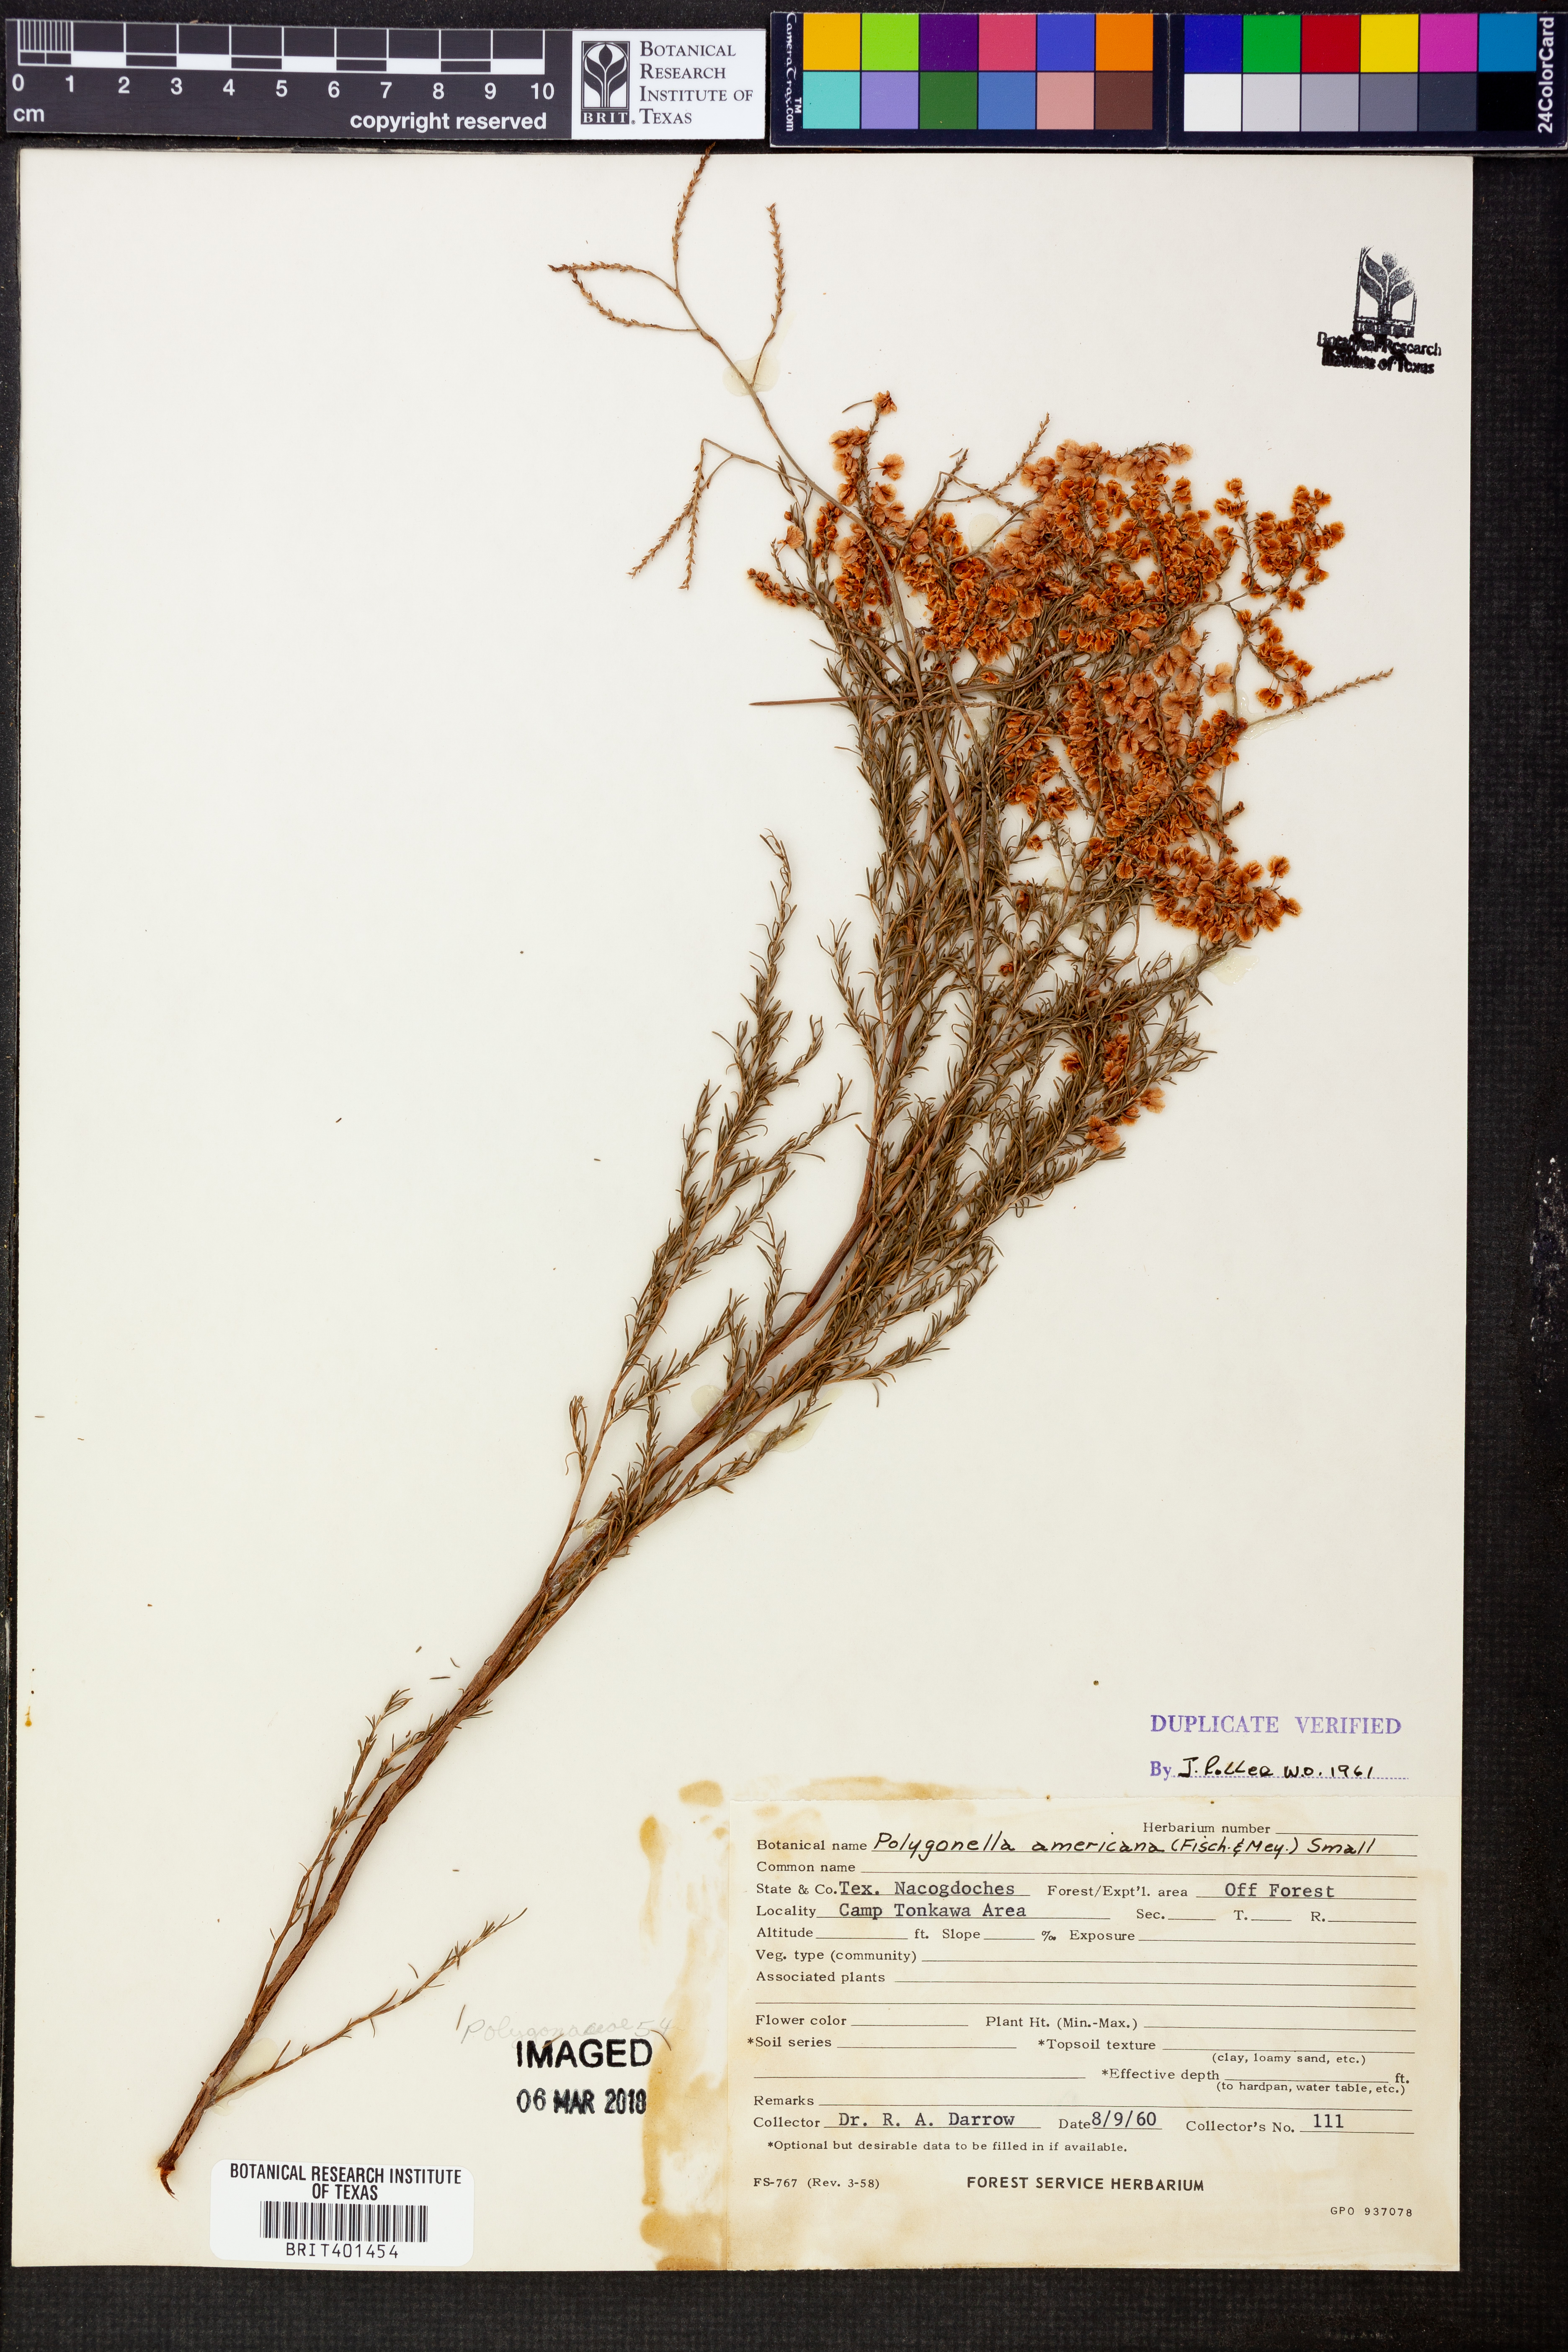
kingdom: Plantae
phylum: Tracheophyta
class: Magnoliopsida
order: Caryophyllales
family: Polygonaceae
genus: Polygonella
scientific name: Polygonella americana
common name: Southern jointweed
